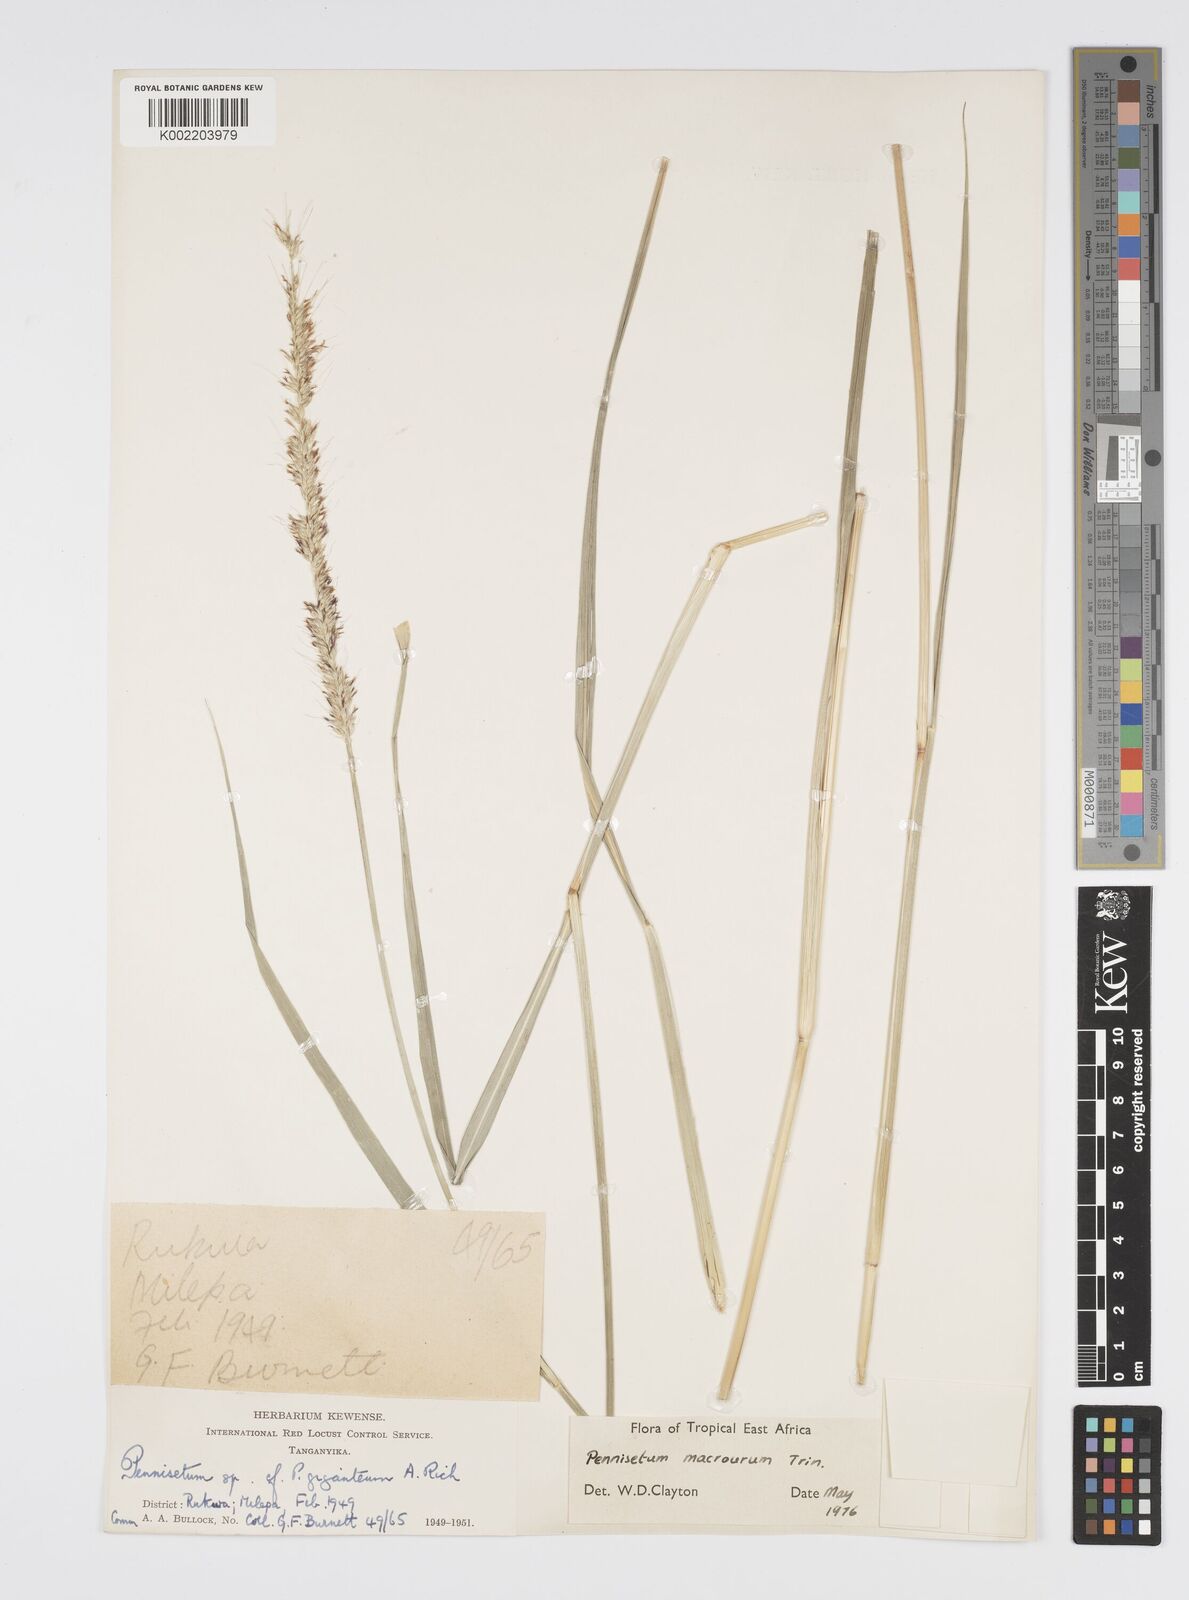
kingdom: Plantae
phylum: Tracheophyta
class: Liliopsida
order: Poales
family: Poaceae
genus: Cenchrus
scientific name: Cenchrus caudatus
